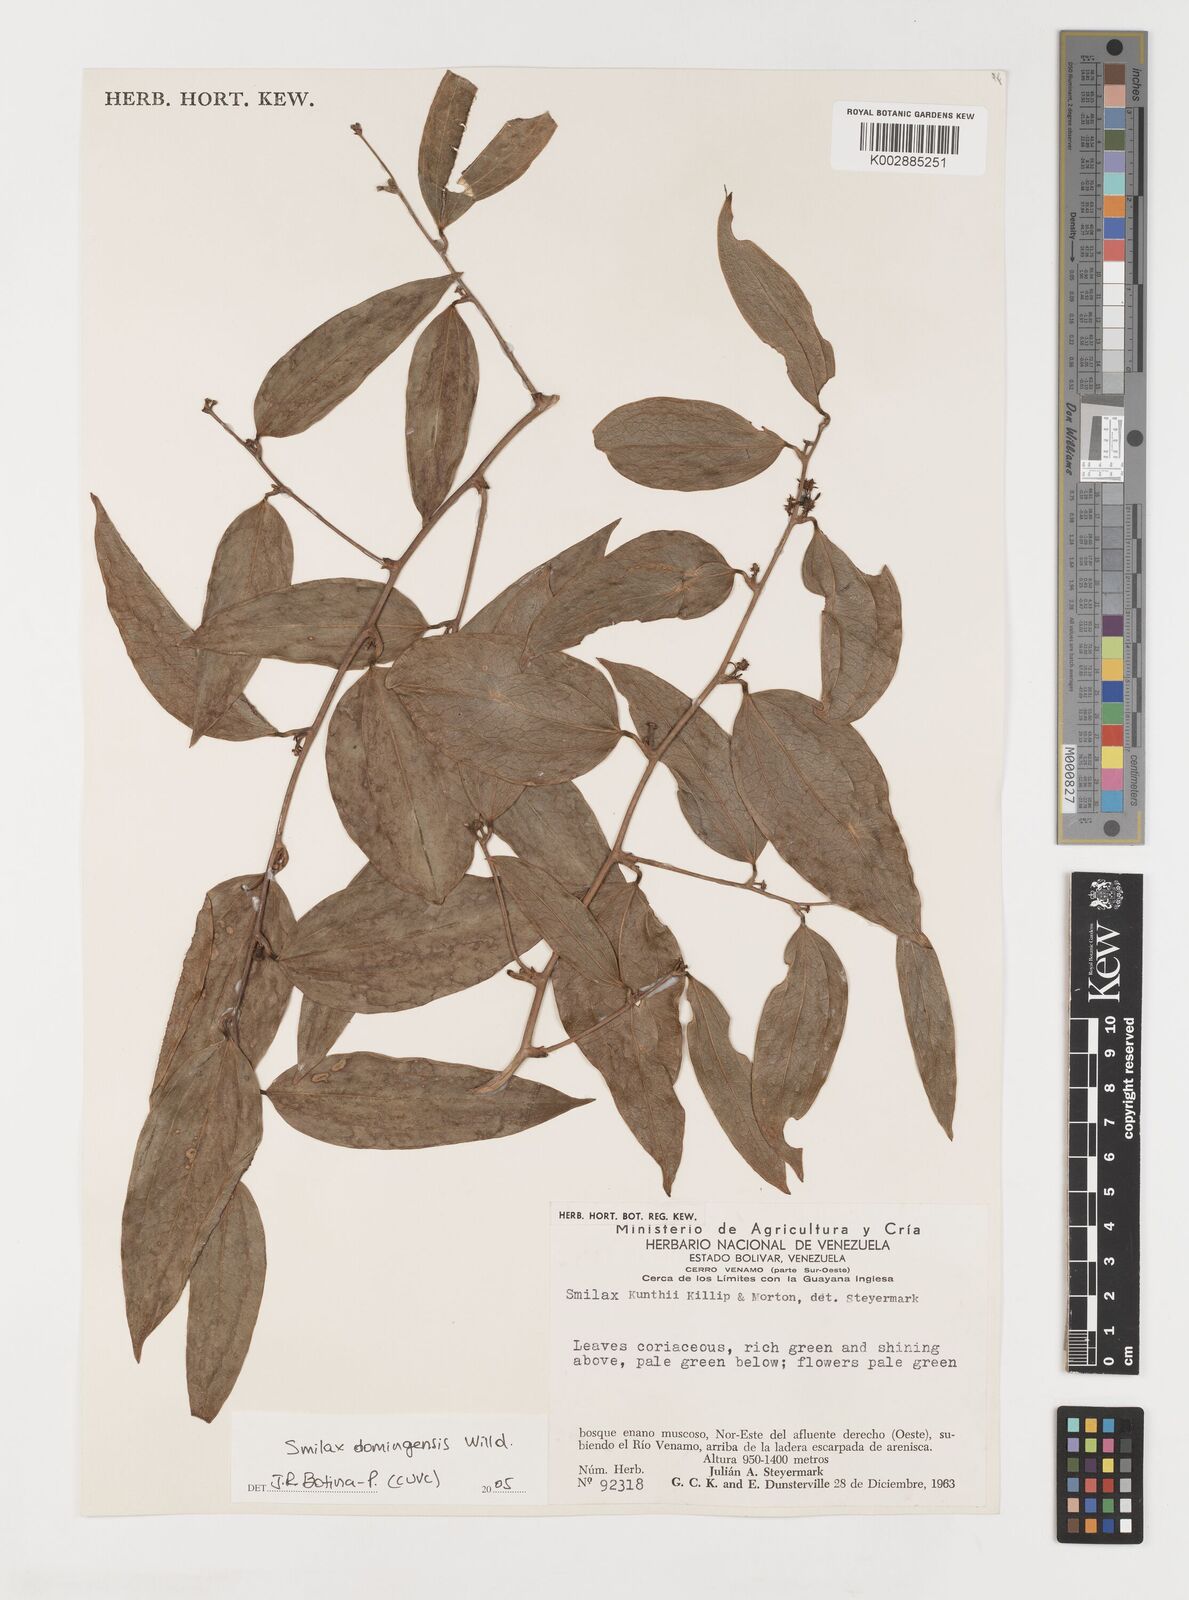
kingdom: Plantae
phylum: Tracheophyta
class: Liliopsida
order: Liliales
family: Smilacaceae
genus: Smilax
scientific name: Smilax domingensis
